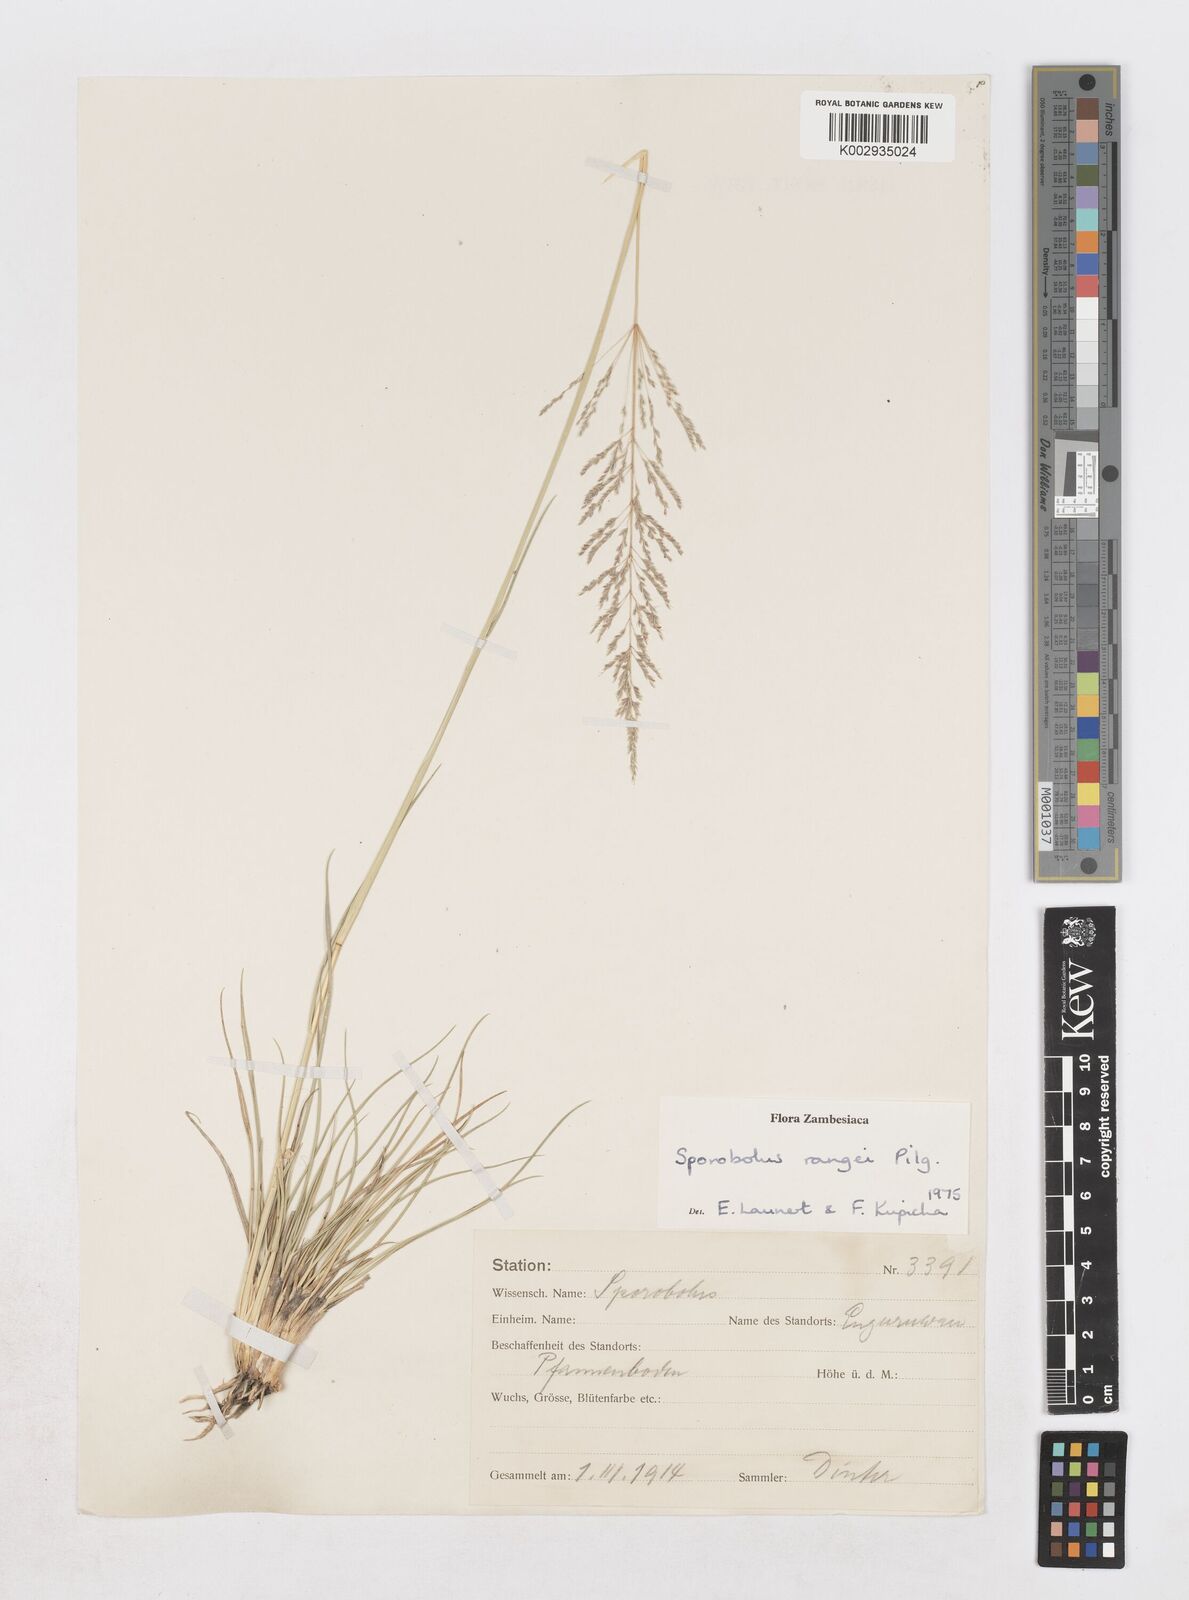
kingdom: Plantae
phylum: Tracheophyta
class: Liliopsida
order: Poales
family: Poaceae
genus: Sporobolus
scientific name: Sporobolus ioclados
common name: Pan dropseed
